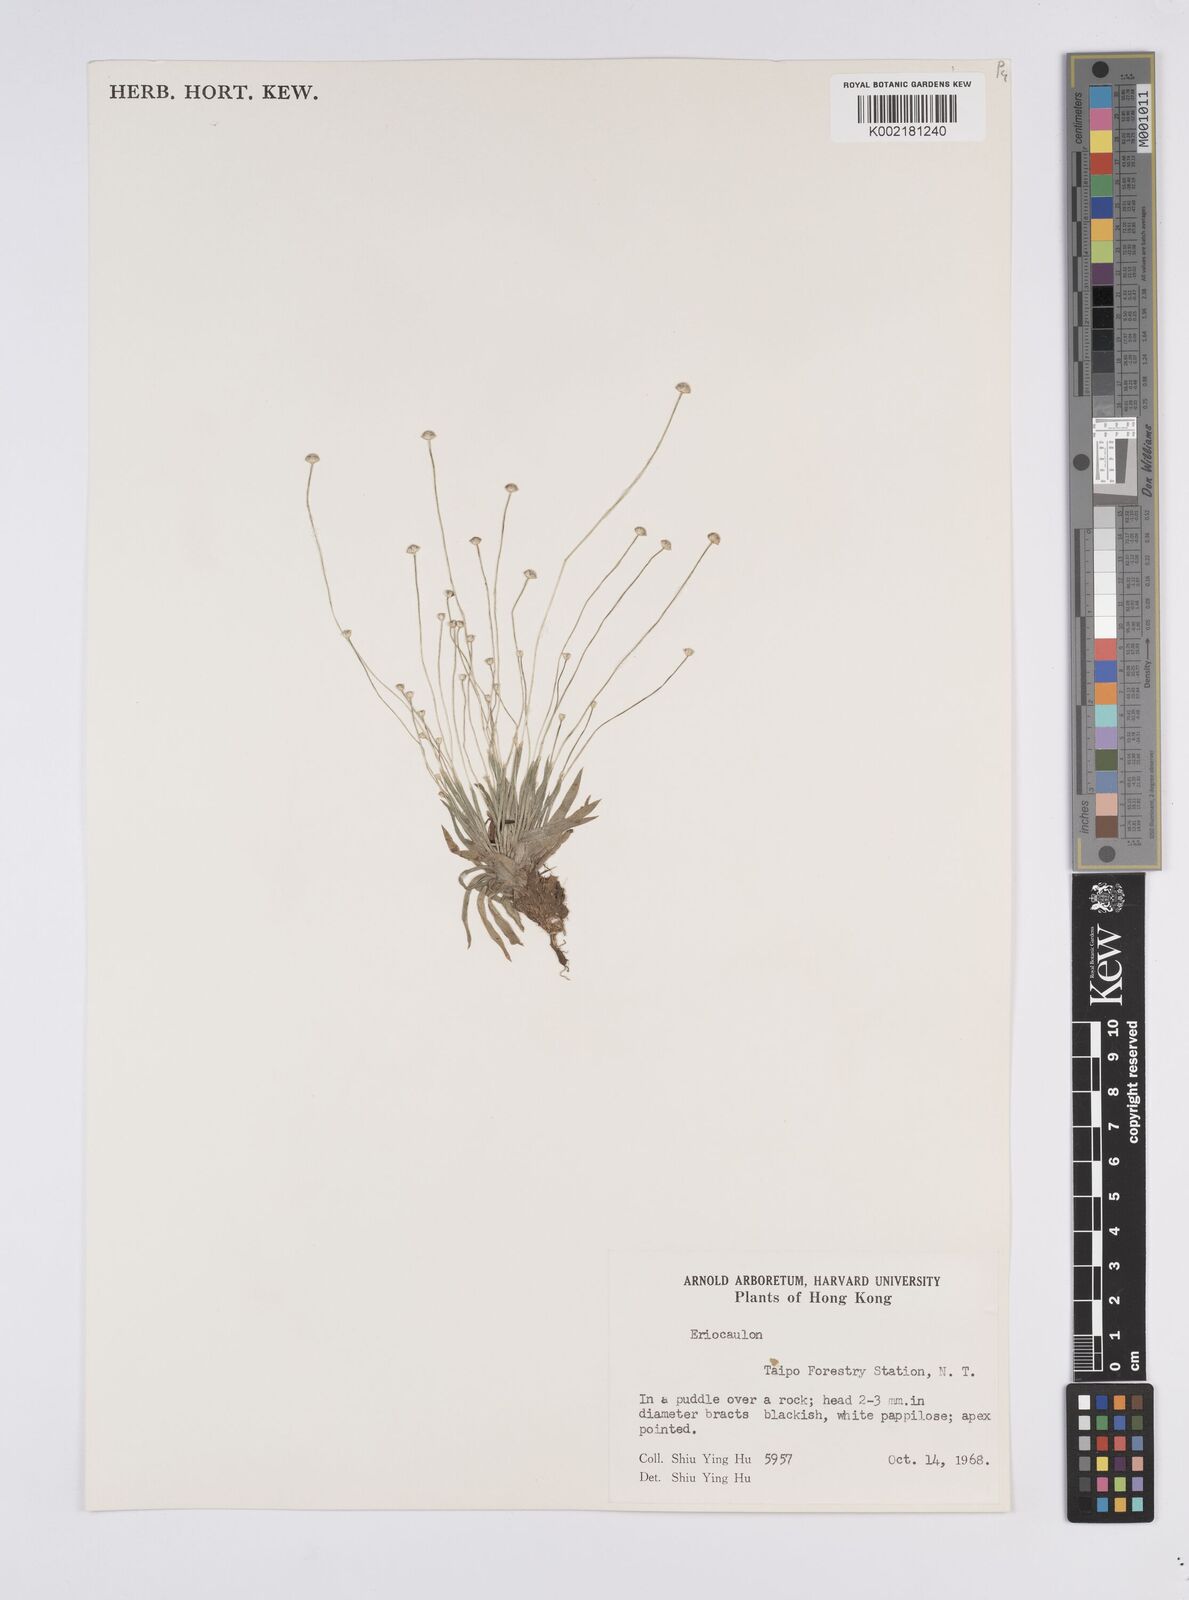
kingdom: Plantae
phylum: Tracheophyta
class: Liliopsida
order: Poales
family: Eriocaulaceae
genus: Eriocaulon
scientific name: Eriocaulon
